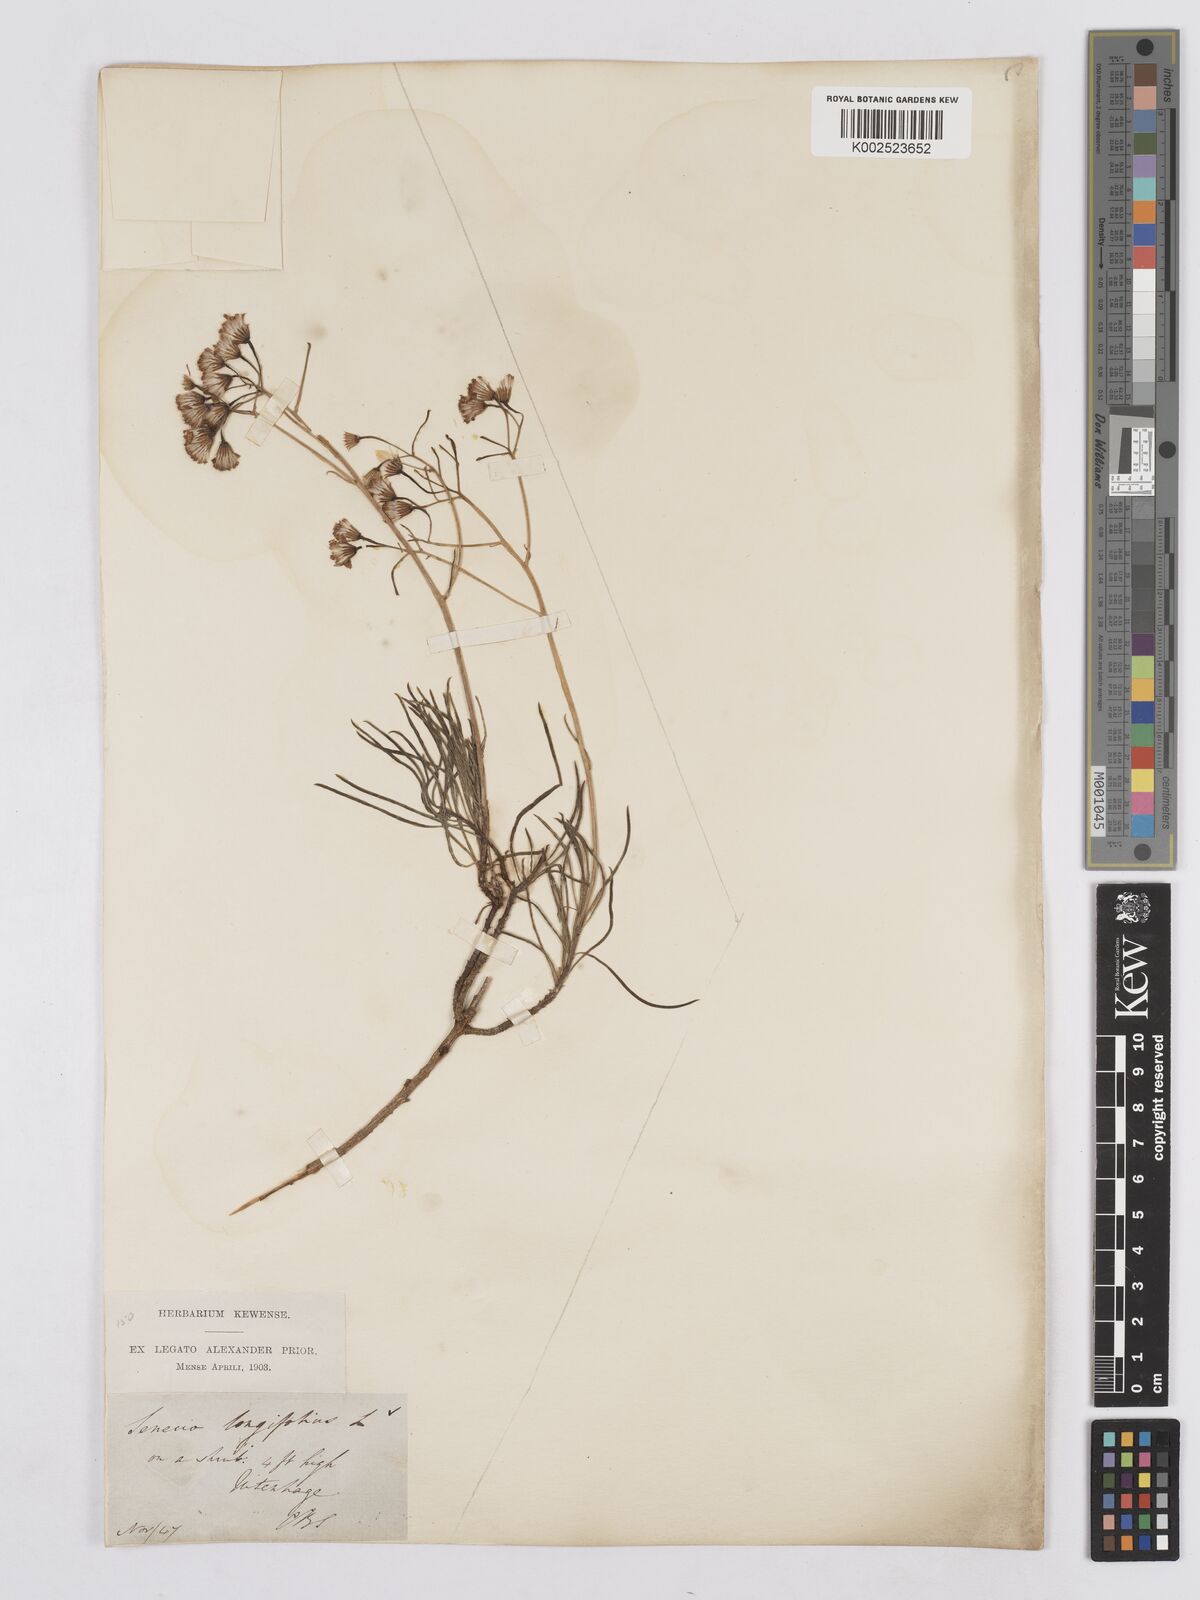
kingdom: Plantae
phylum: Tracheophyta
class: Magnoliopsida
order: Asterales
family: Asteraceae
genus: Senecio
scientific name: Senecio linifolius
